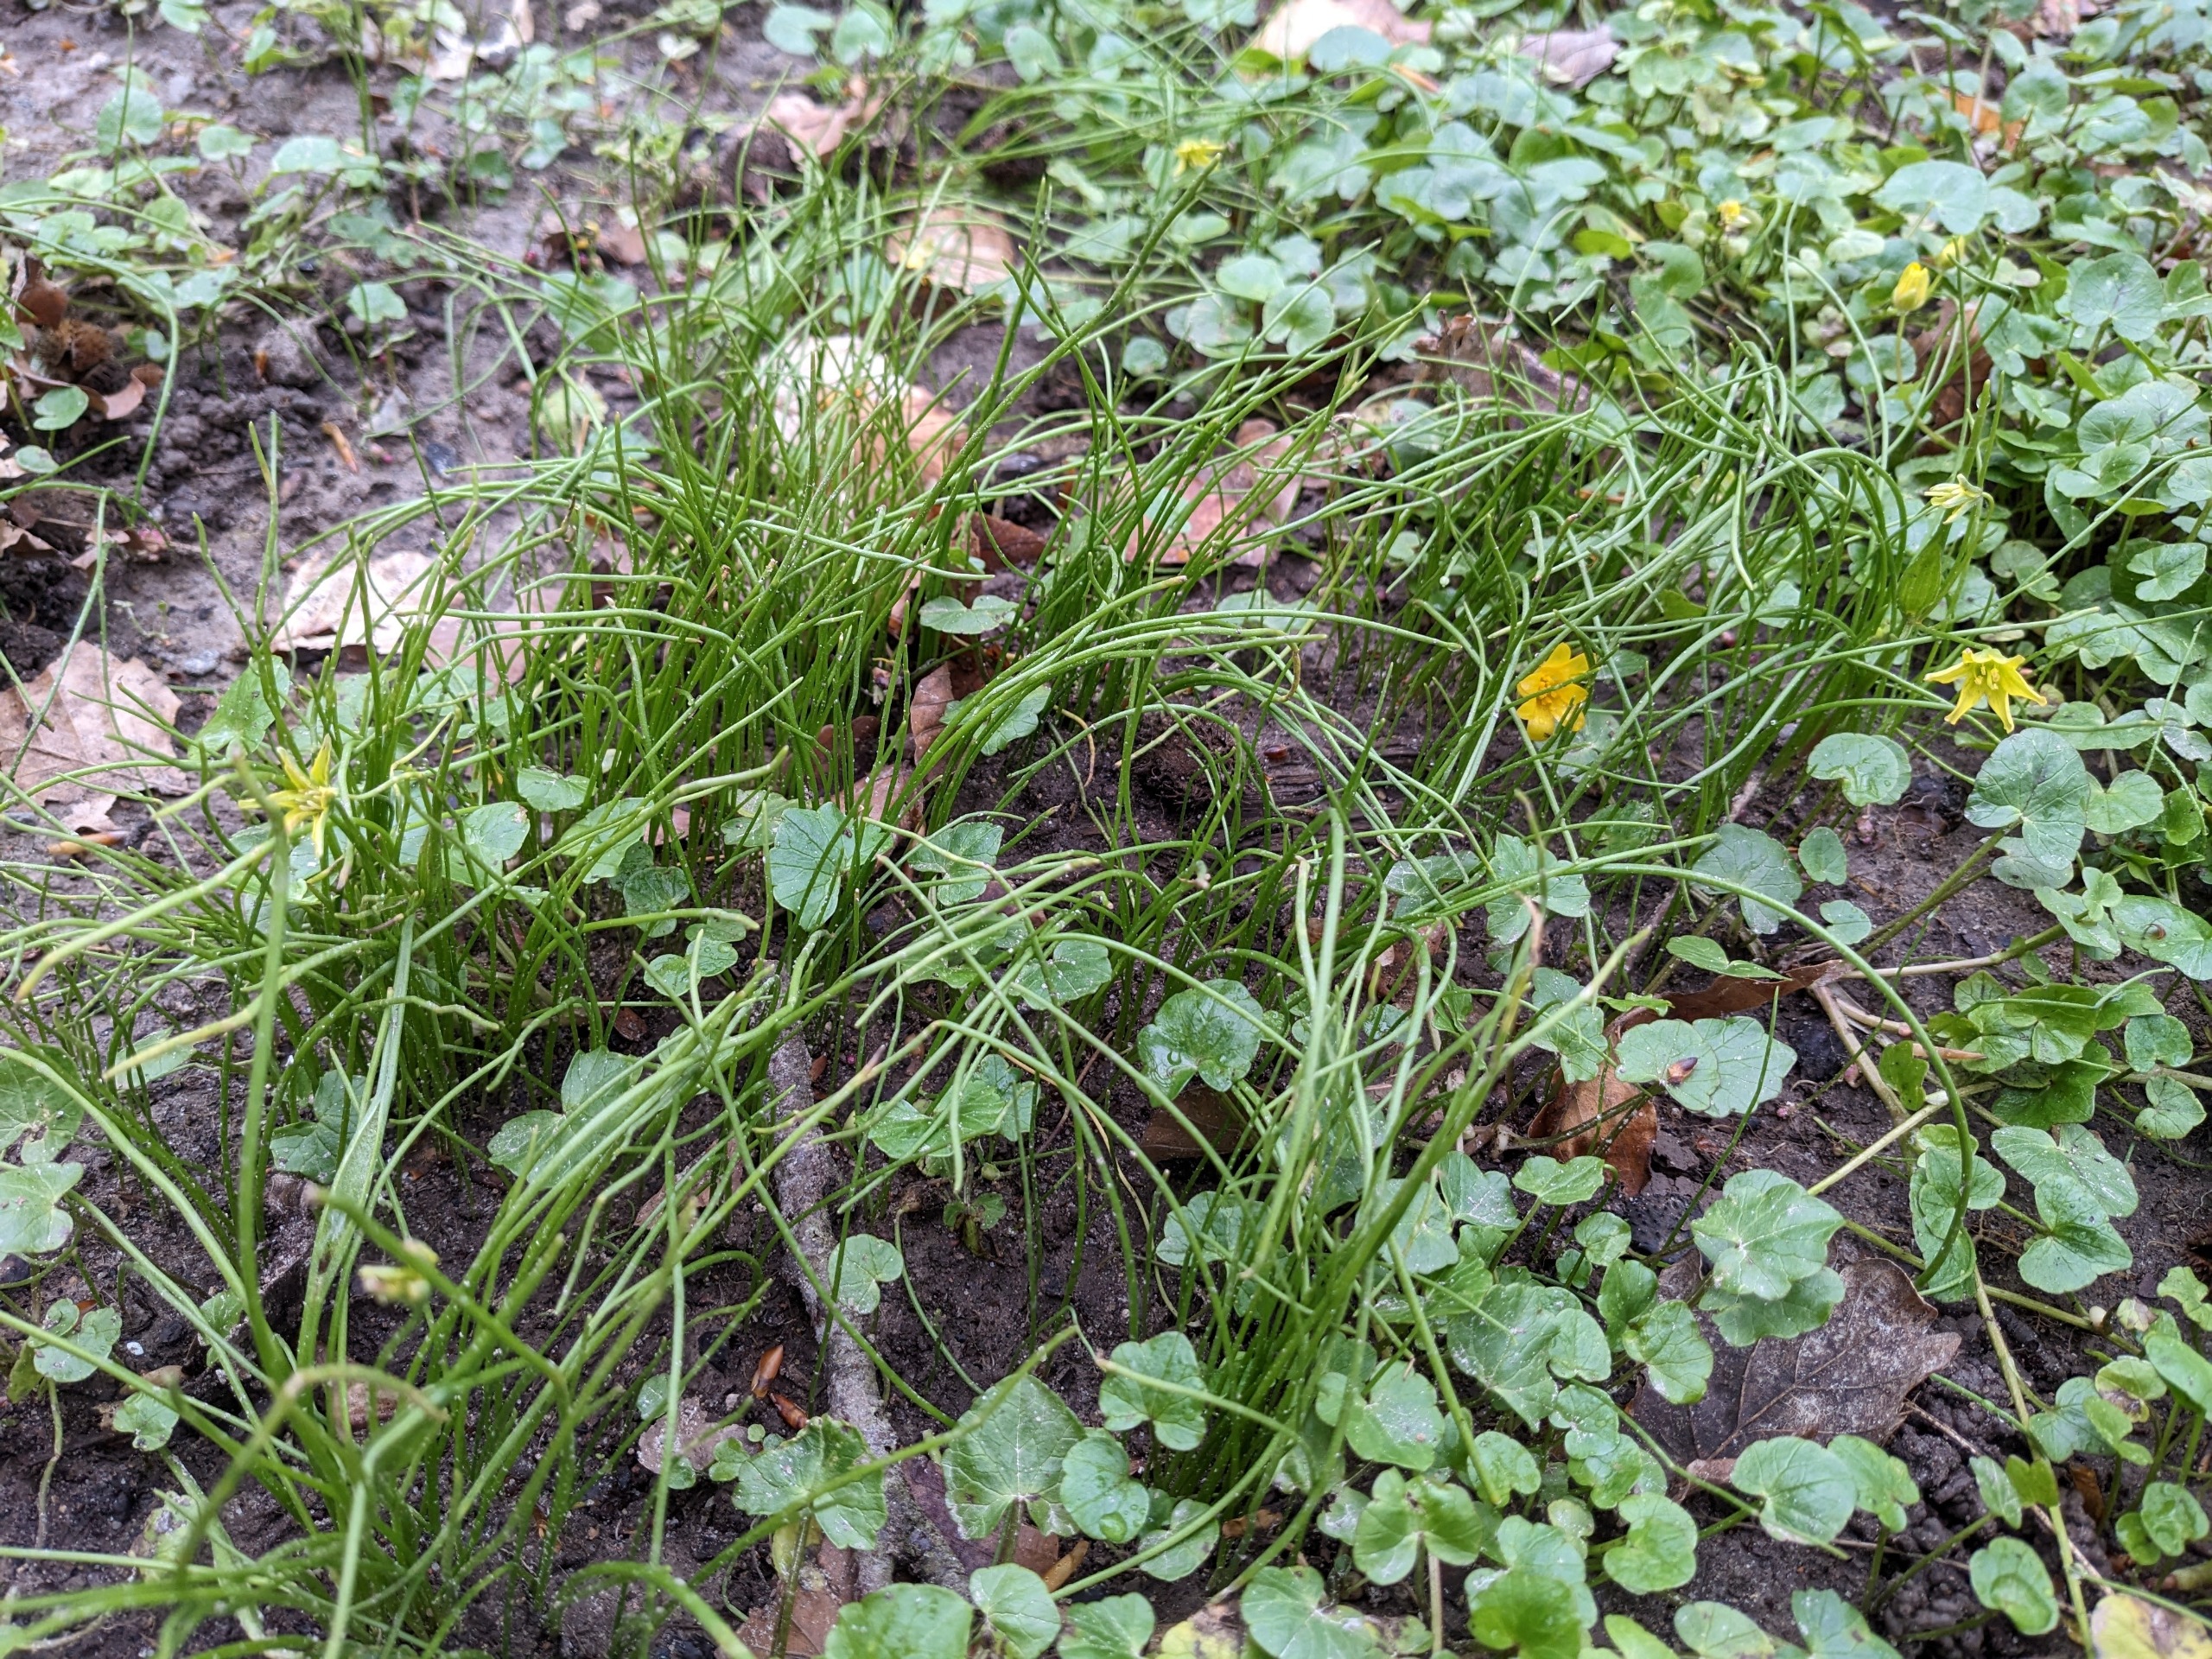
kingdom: Plantae
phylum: Tracheophyta
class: Liliopsida
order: Liliales
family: Liliaceae
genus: Gagea
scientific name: Gagea spathacea
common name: Hylster-guldstjerne
